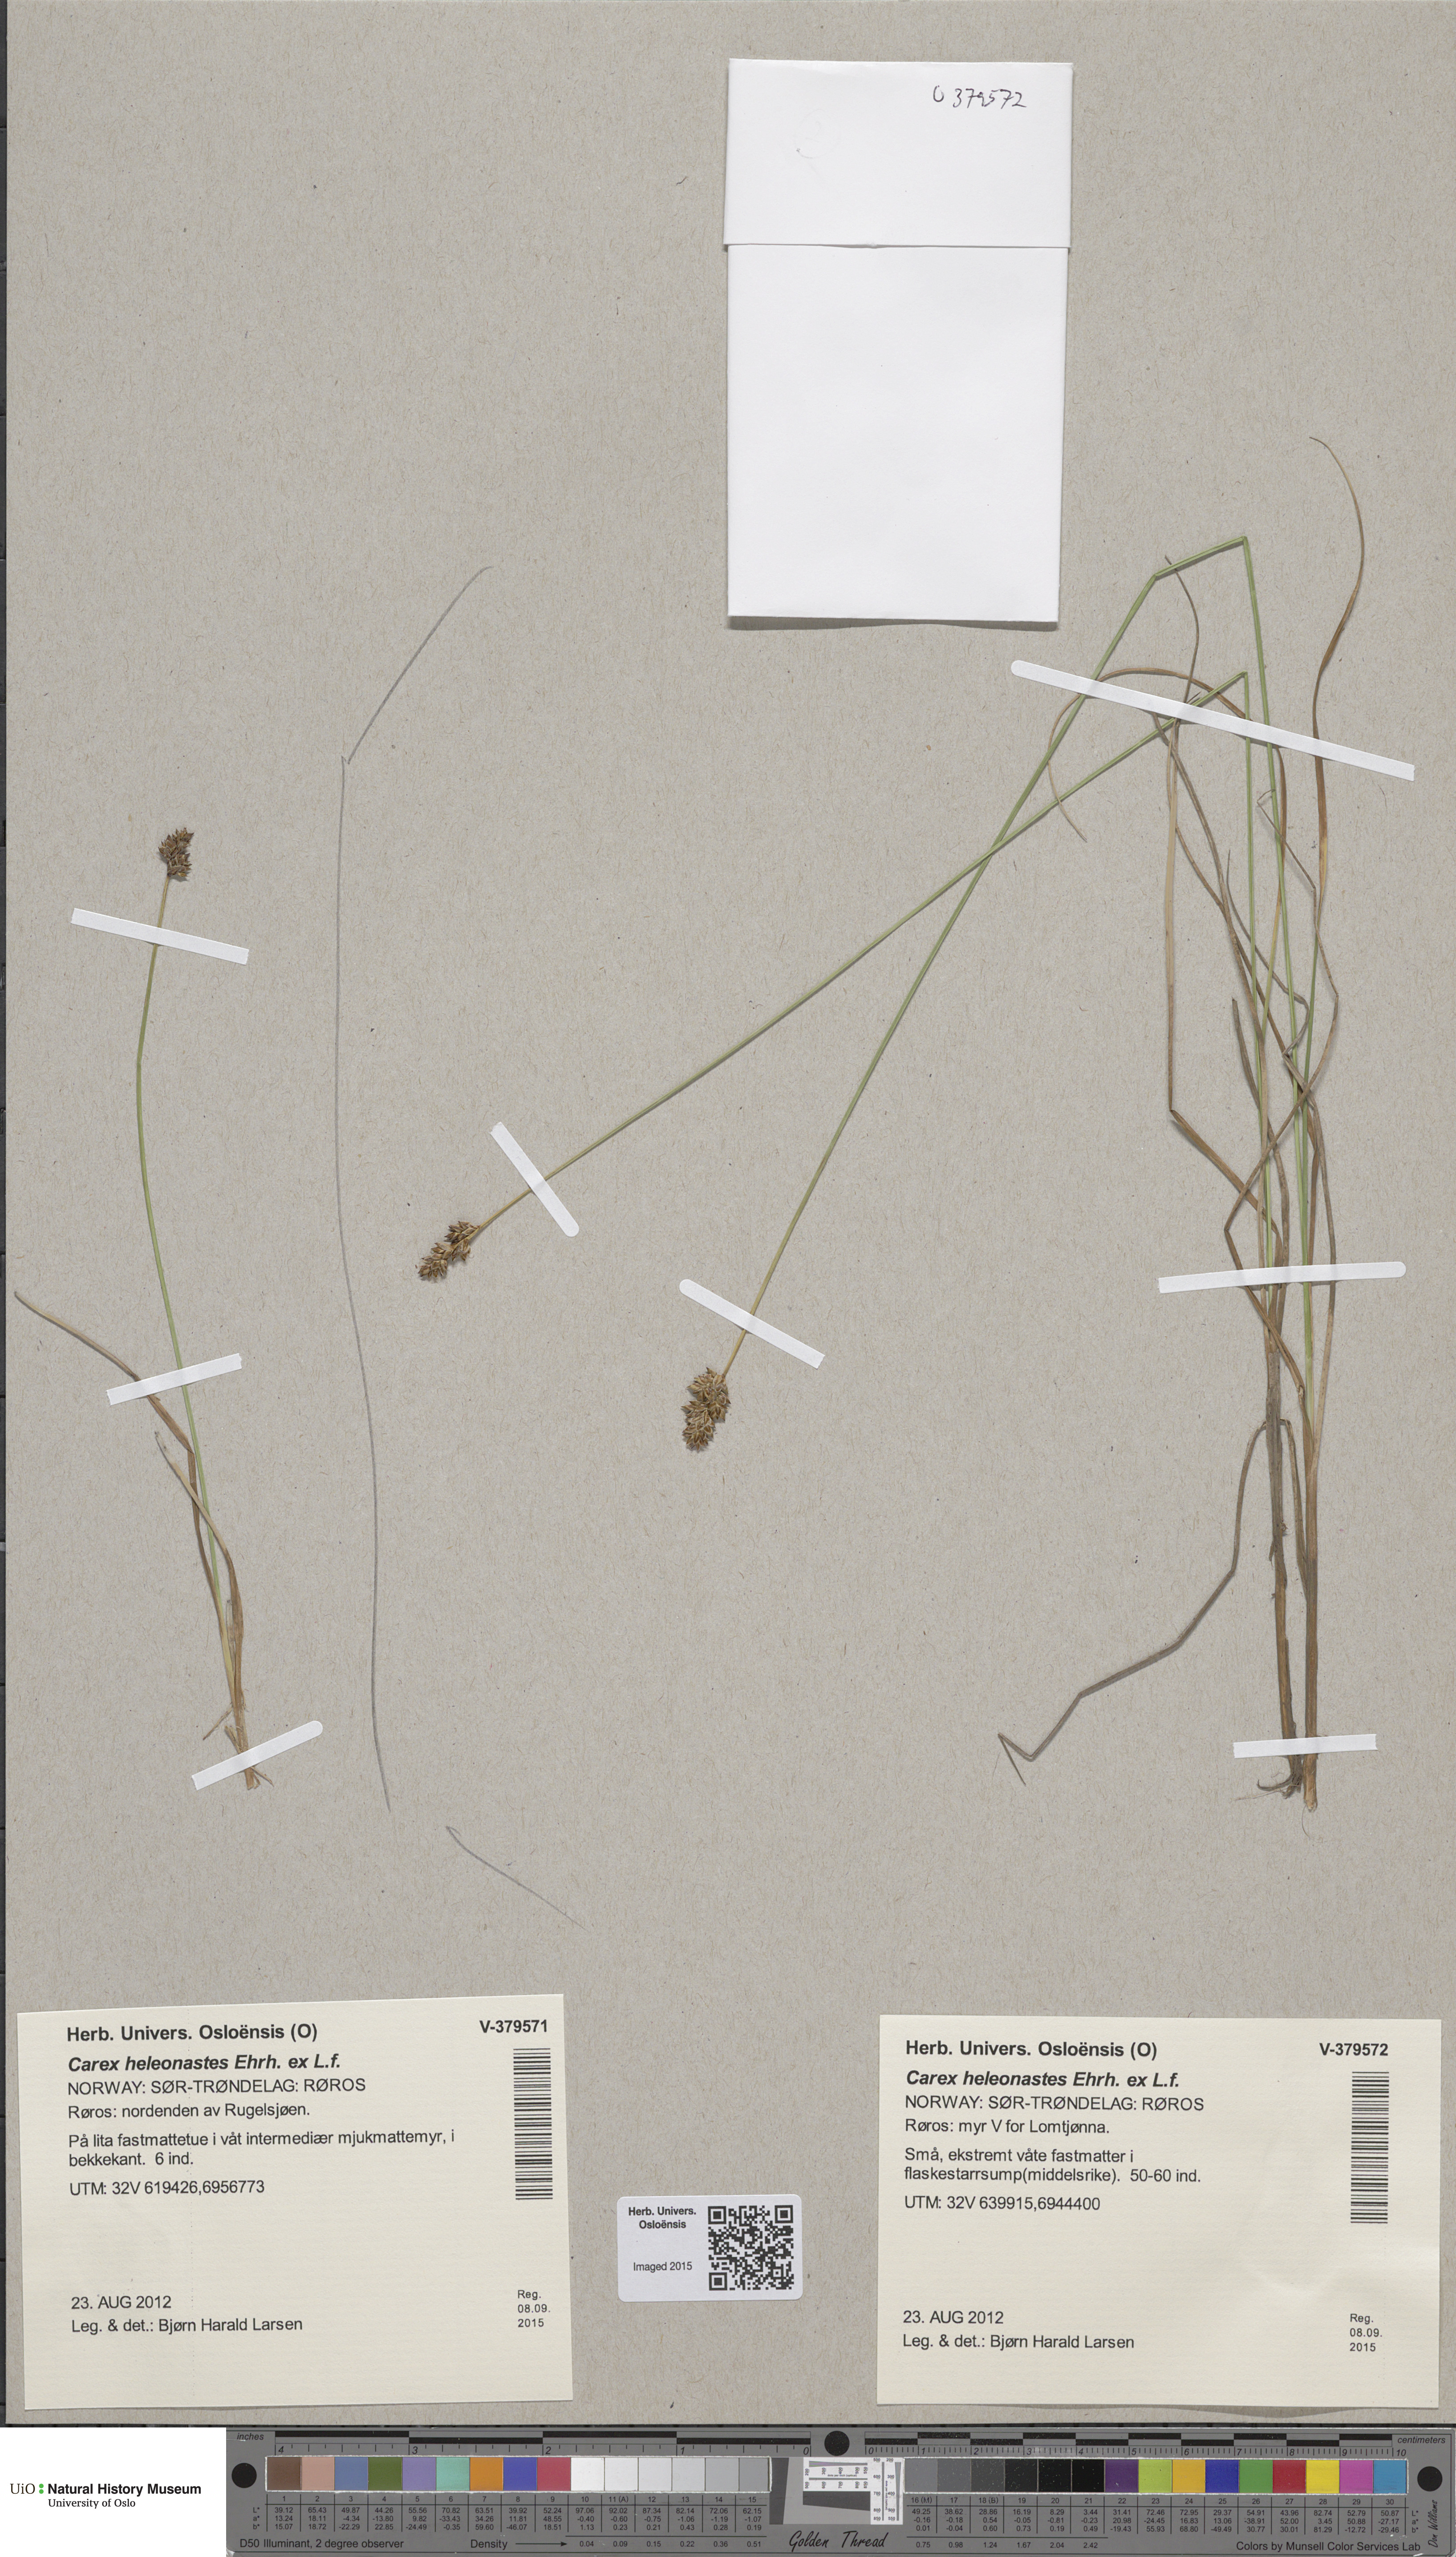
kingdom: Plantae
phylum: Tracheophyta
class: Liliopsida
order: Poales
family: Cyperaceae
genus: Carex
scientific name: Carex heleonastes
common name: Hudson bay sedge
